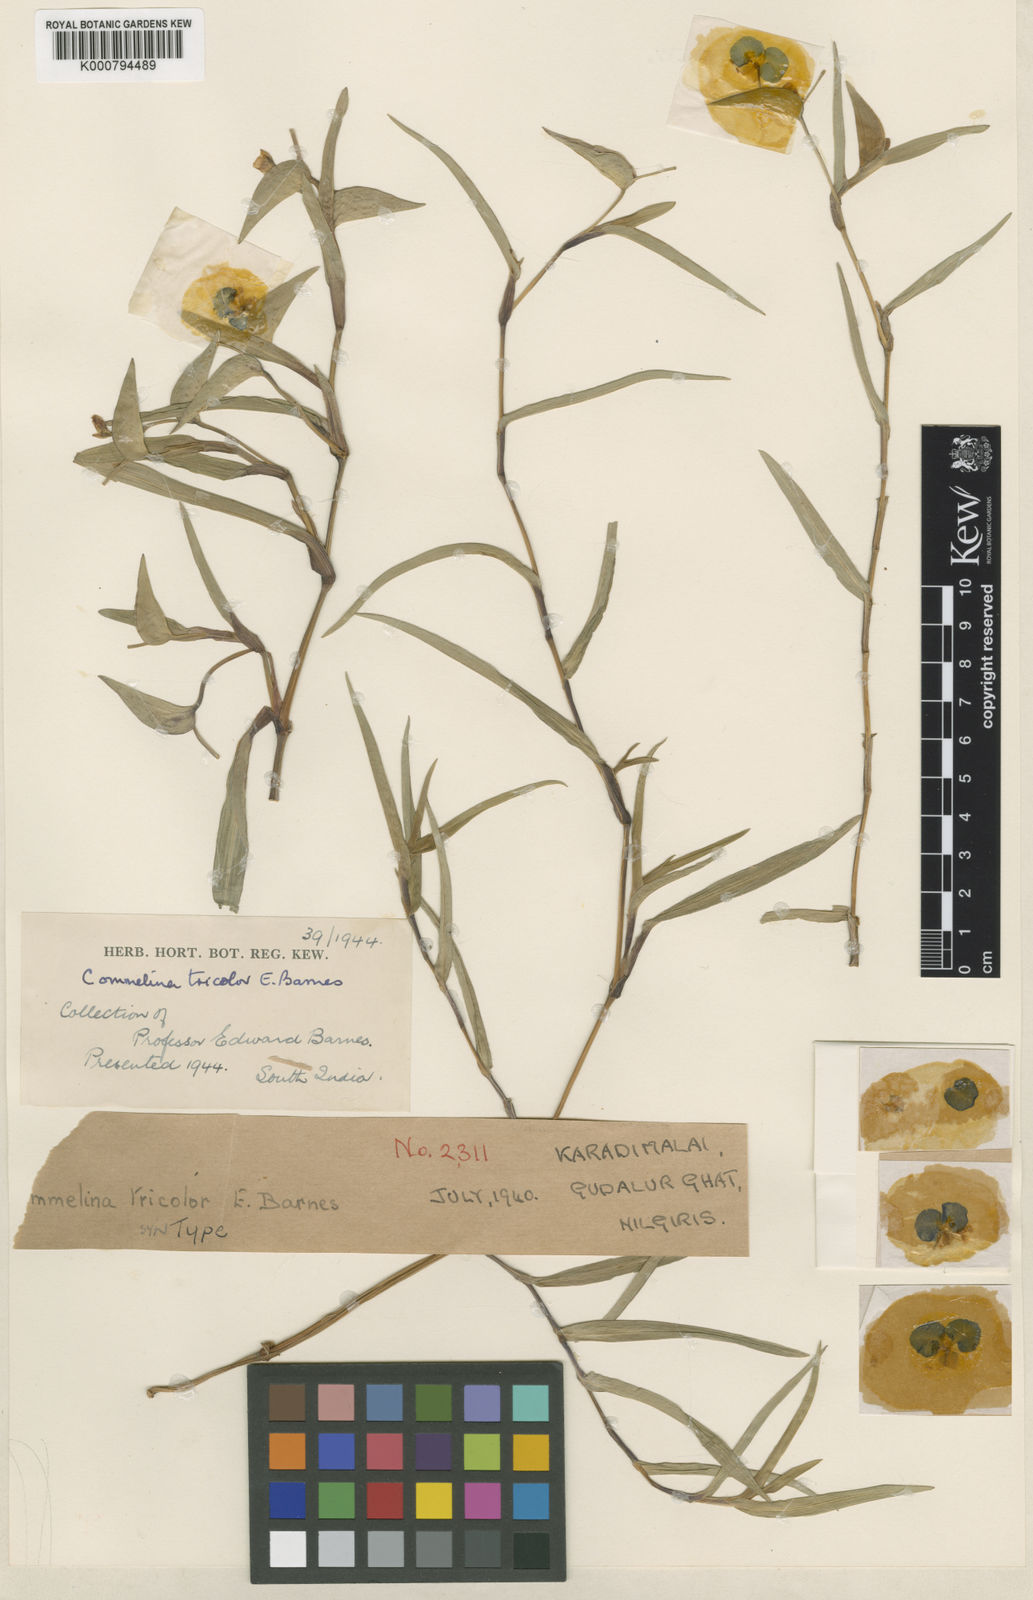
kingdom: Plantae
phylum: Tracheophyta
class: Liliopsida
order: Commelinales
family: Commelinaceae
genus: Commelina
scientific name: Commelina tricolor
